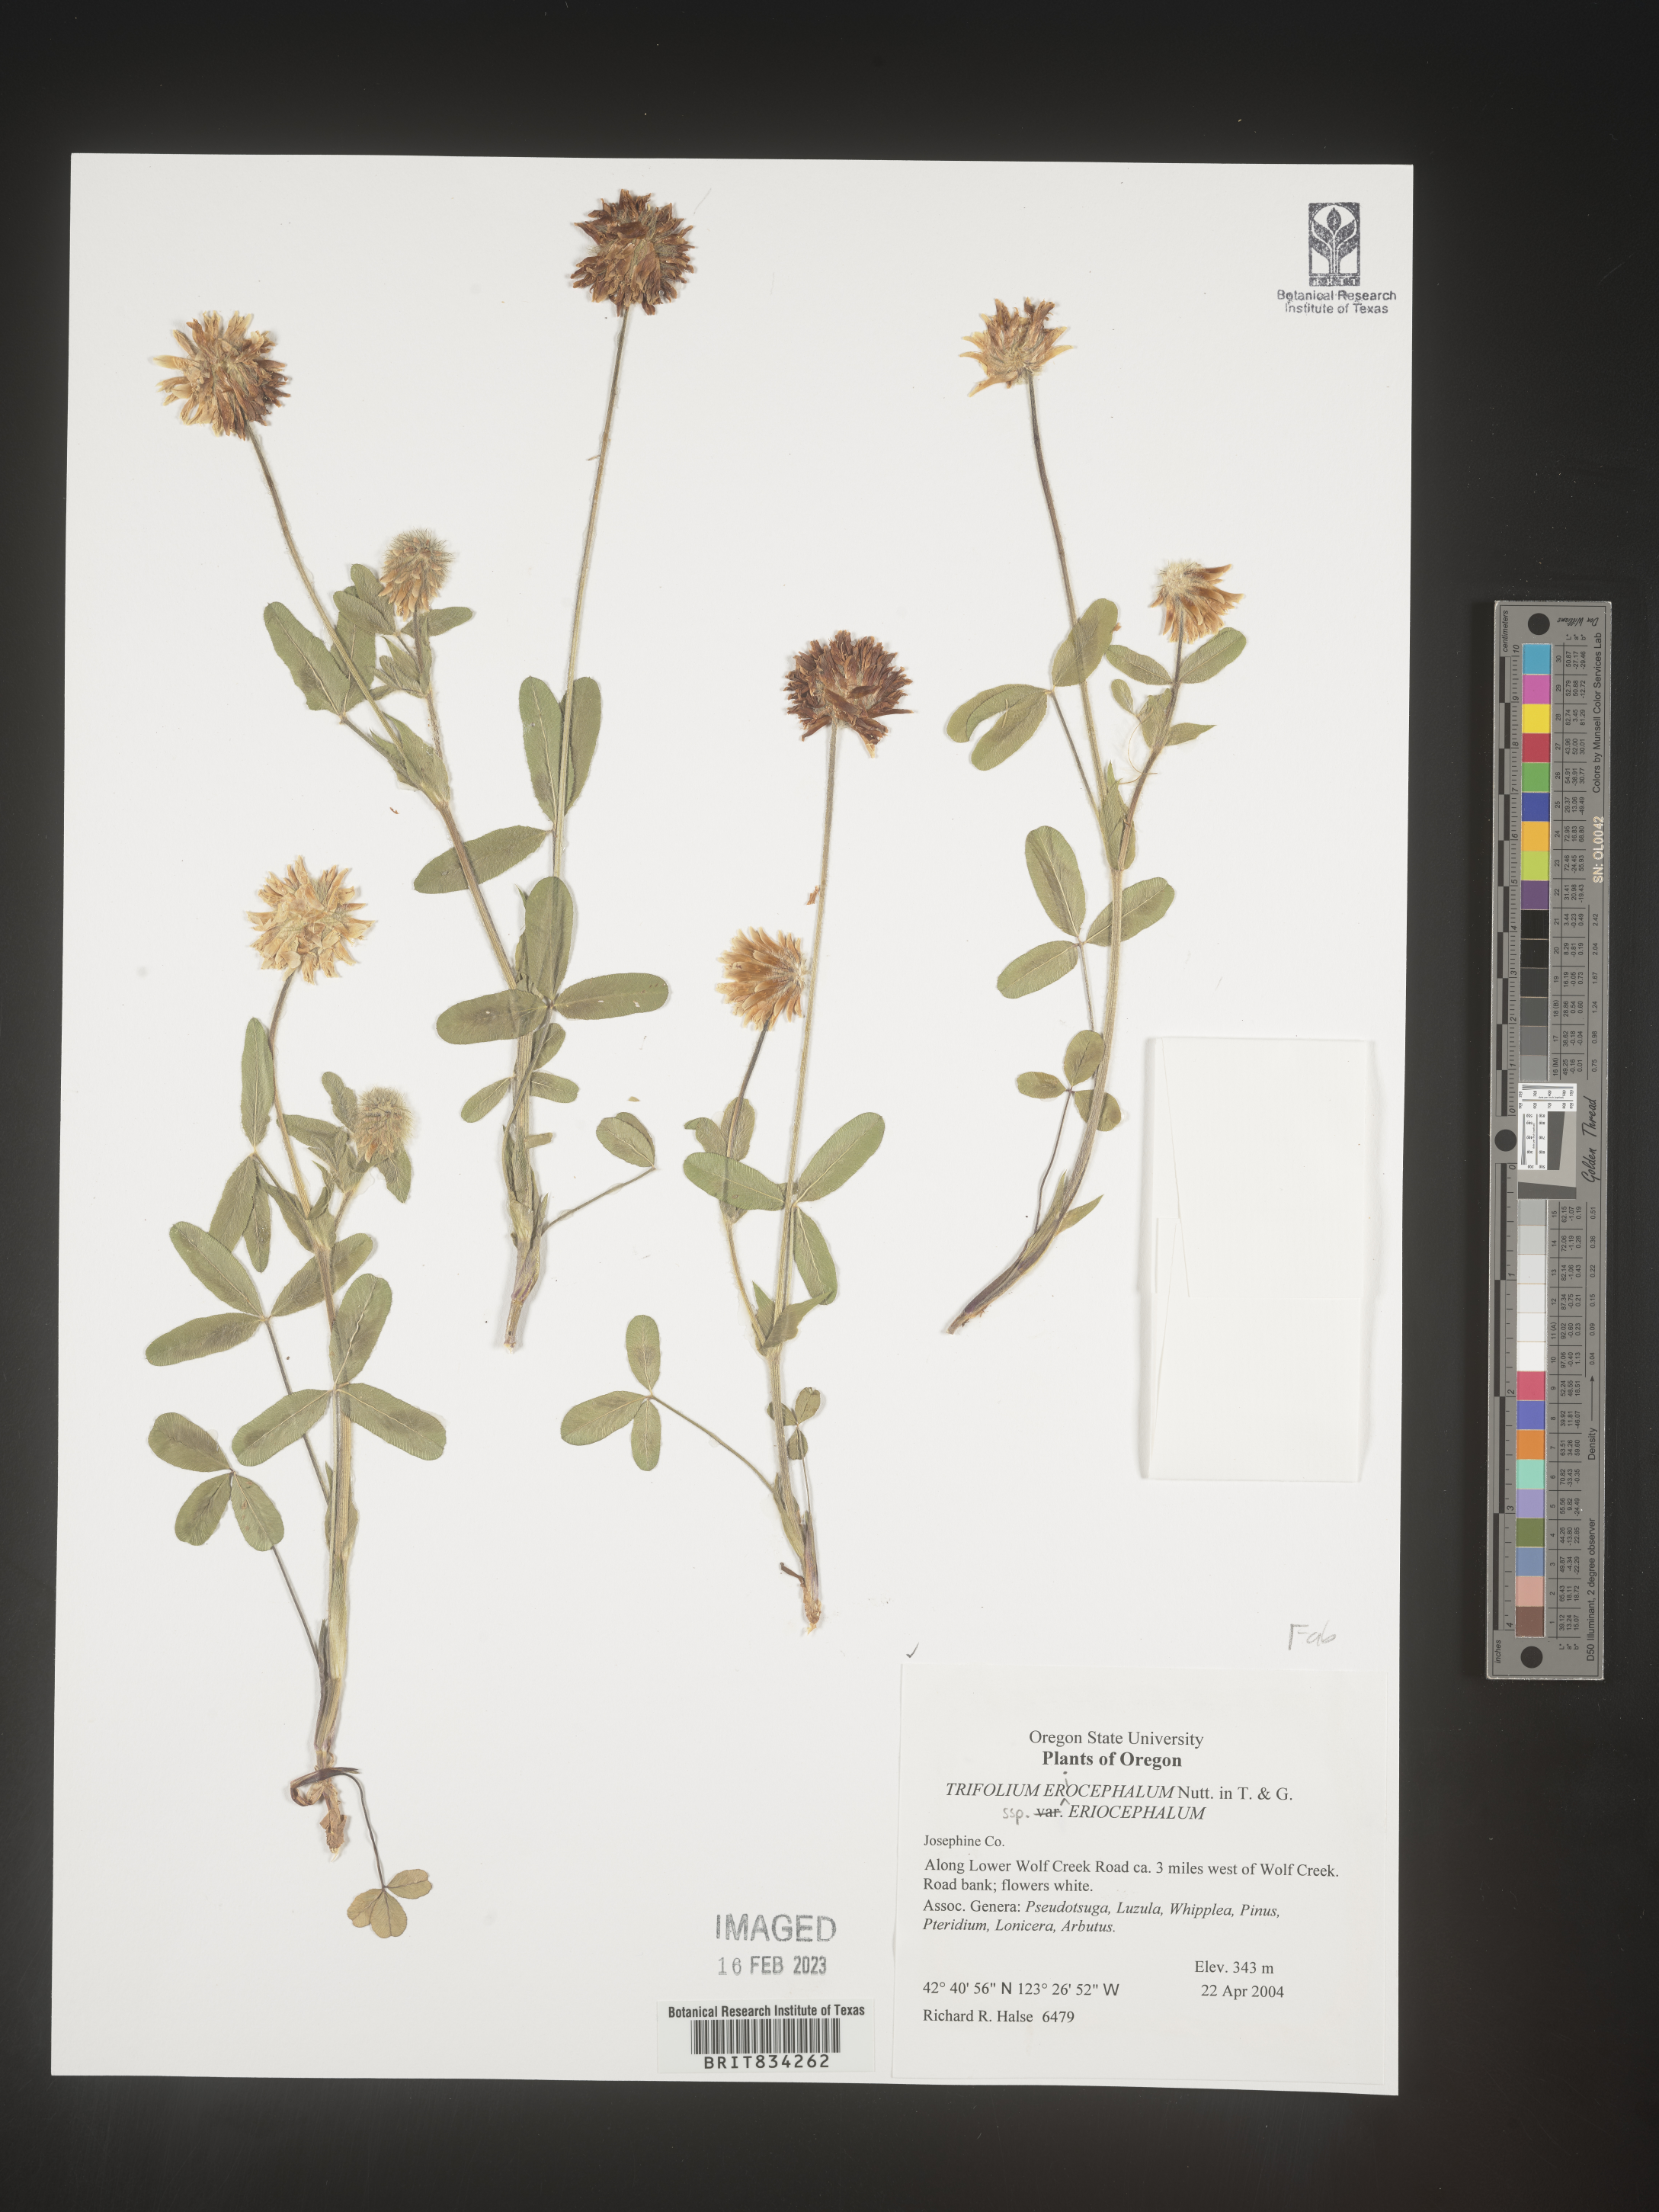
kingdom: Plantae
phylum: Tracheophyta
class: Magnoliopsida
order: Fabales
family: Fabaceae
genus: Trifolium
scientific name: Trifolium
